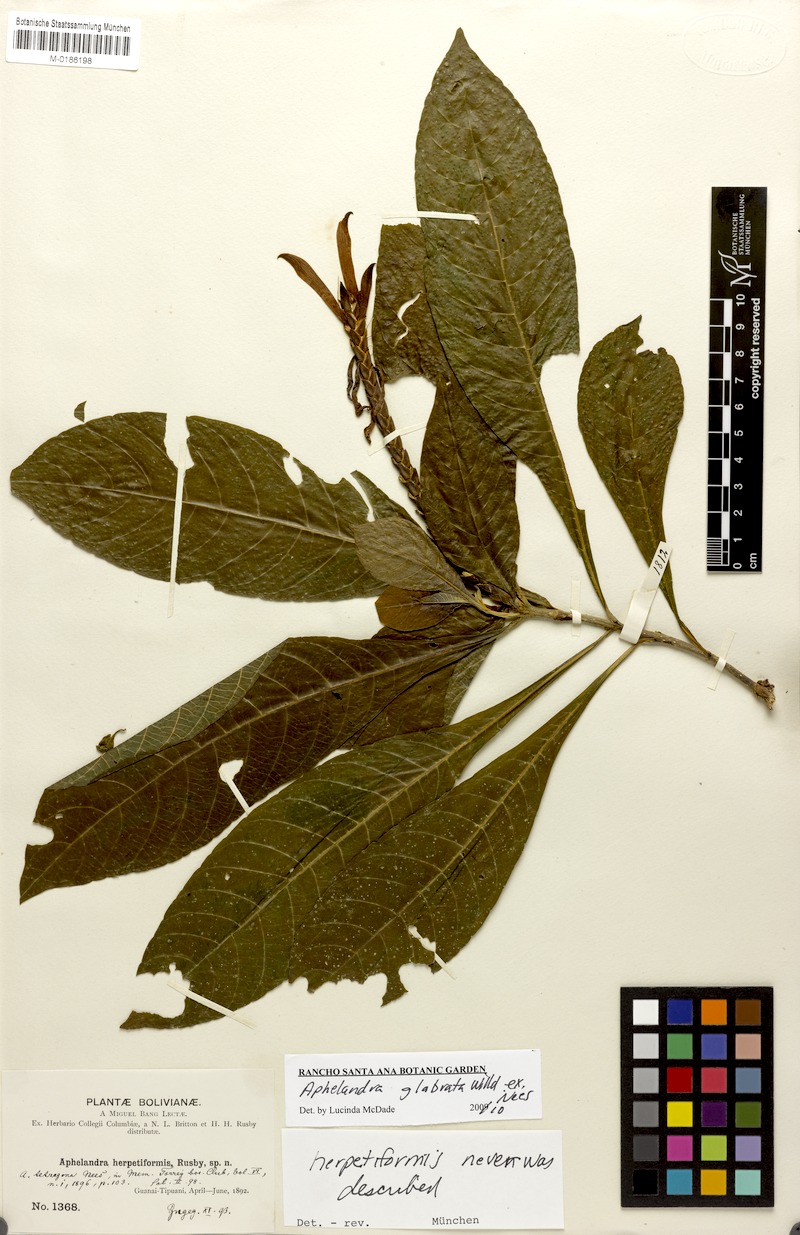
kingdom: Plantae
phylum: Tracheophyta
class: Magnoliopsida
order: Lamiales
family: Acanthaceae
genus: Aphelandra
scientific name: Aphelandra glabrata
